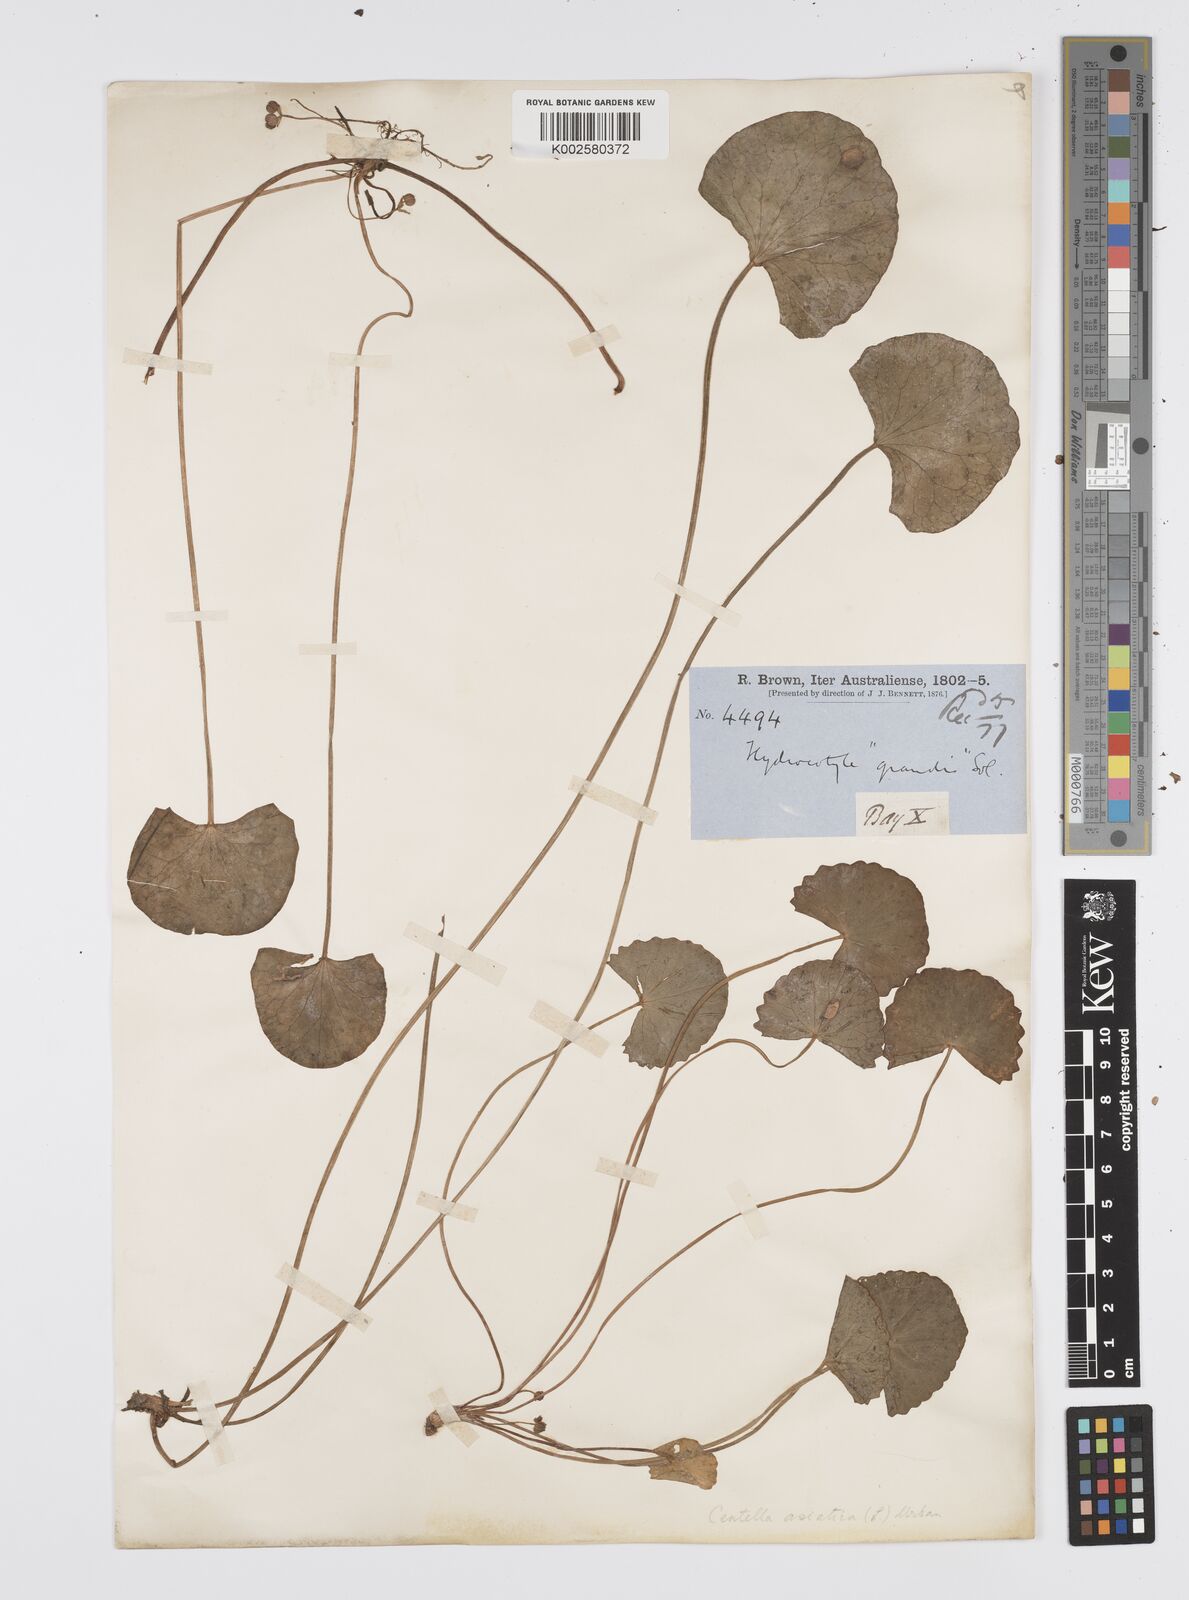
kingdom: Plantae
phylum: Tracheophyta
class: Magnoliopsida
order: Apiales
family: Apiaceae
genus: Centella
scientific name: Centella asiatica
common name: Spadeleaf
